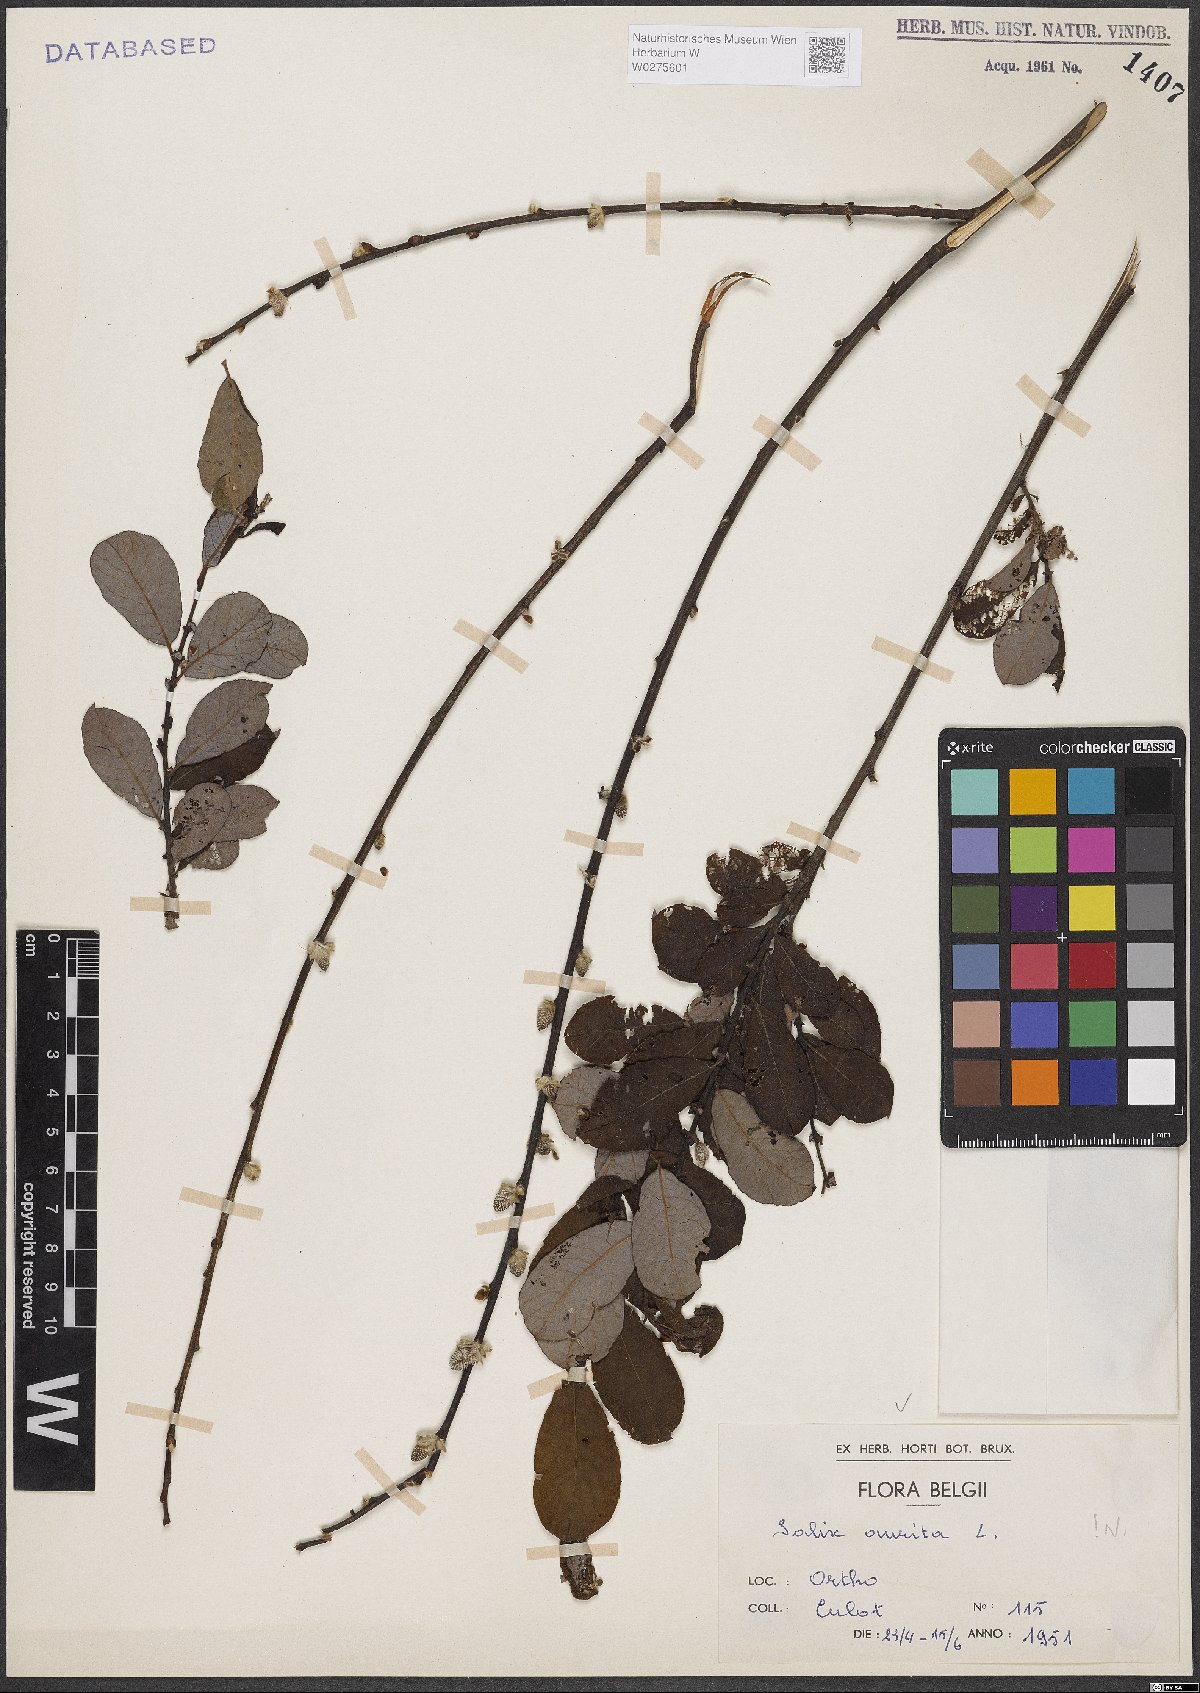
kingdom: Plantae
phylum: Tracheophyta
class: Magnoliopsida
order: Malpighiales
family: Salicaceae
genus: Salix
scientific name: Salix aurita
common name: Eared willow
